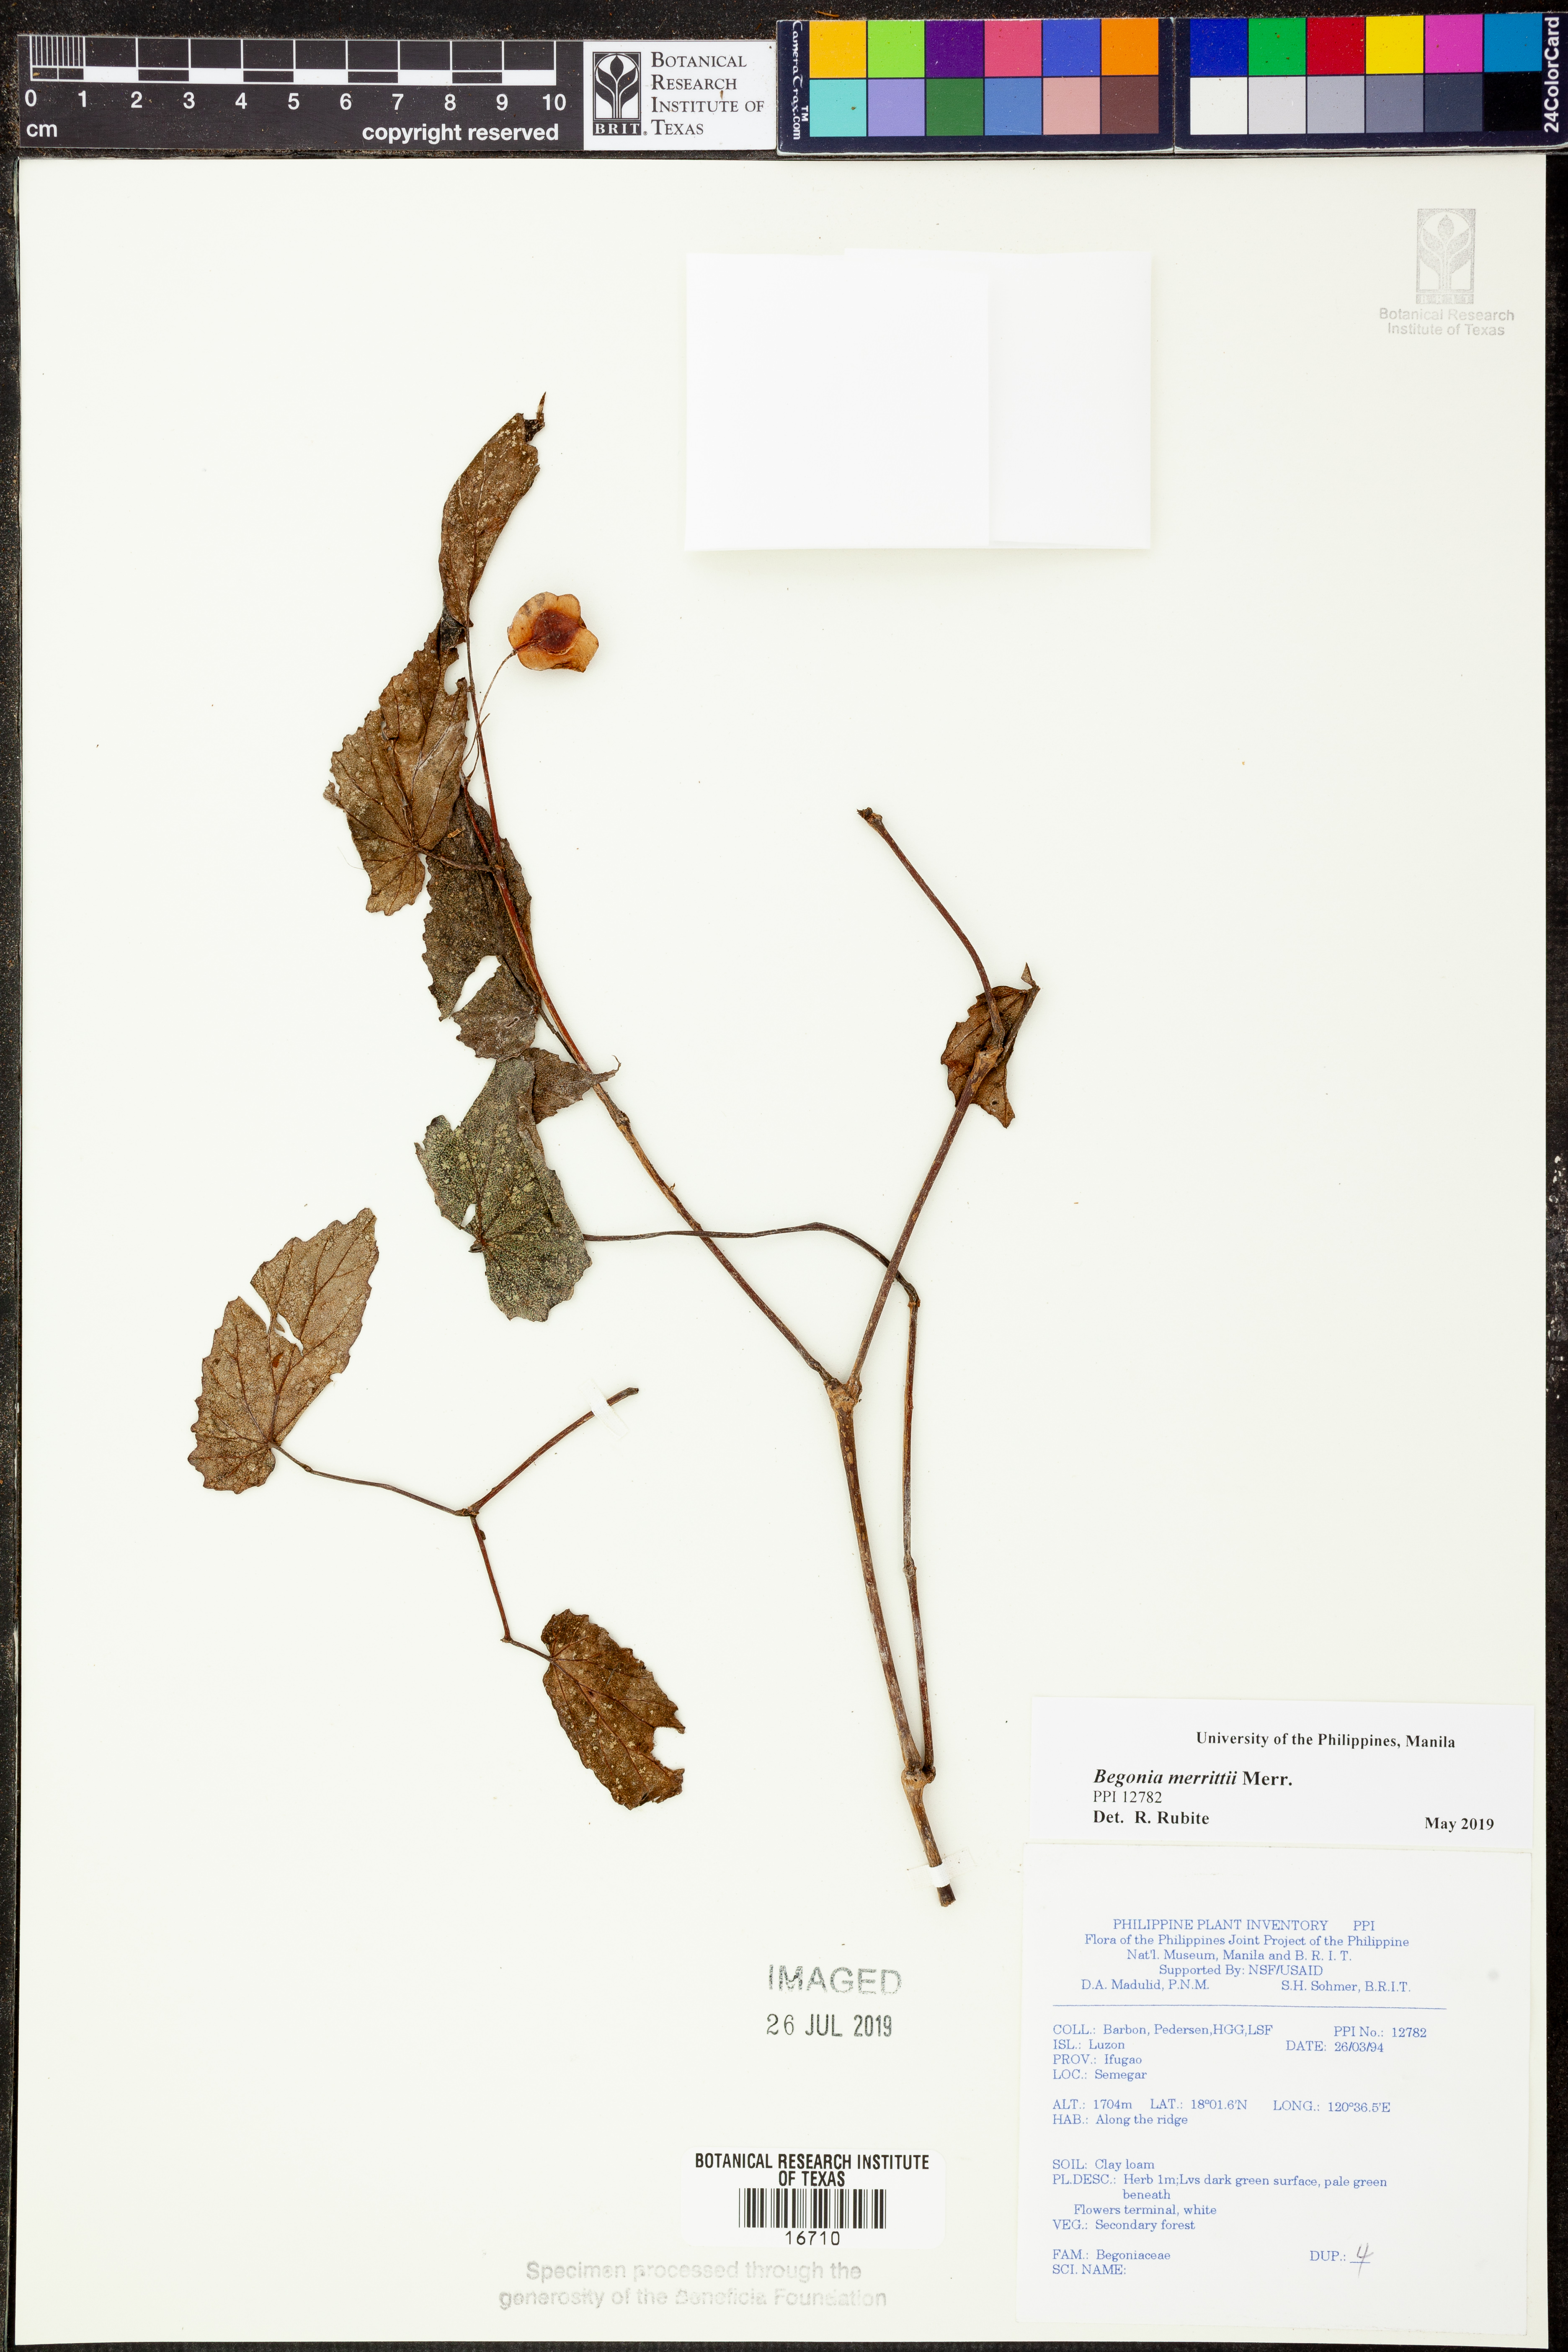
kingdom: Plantae
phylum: Tracheophyta
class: Magnoliopsida
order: Cucurbitales
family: Begoniaceae
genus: Begonia
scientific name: Begonia merrittii
